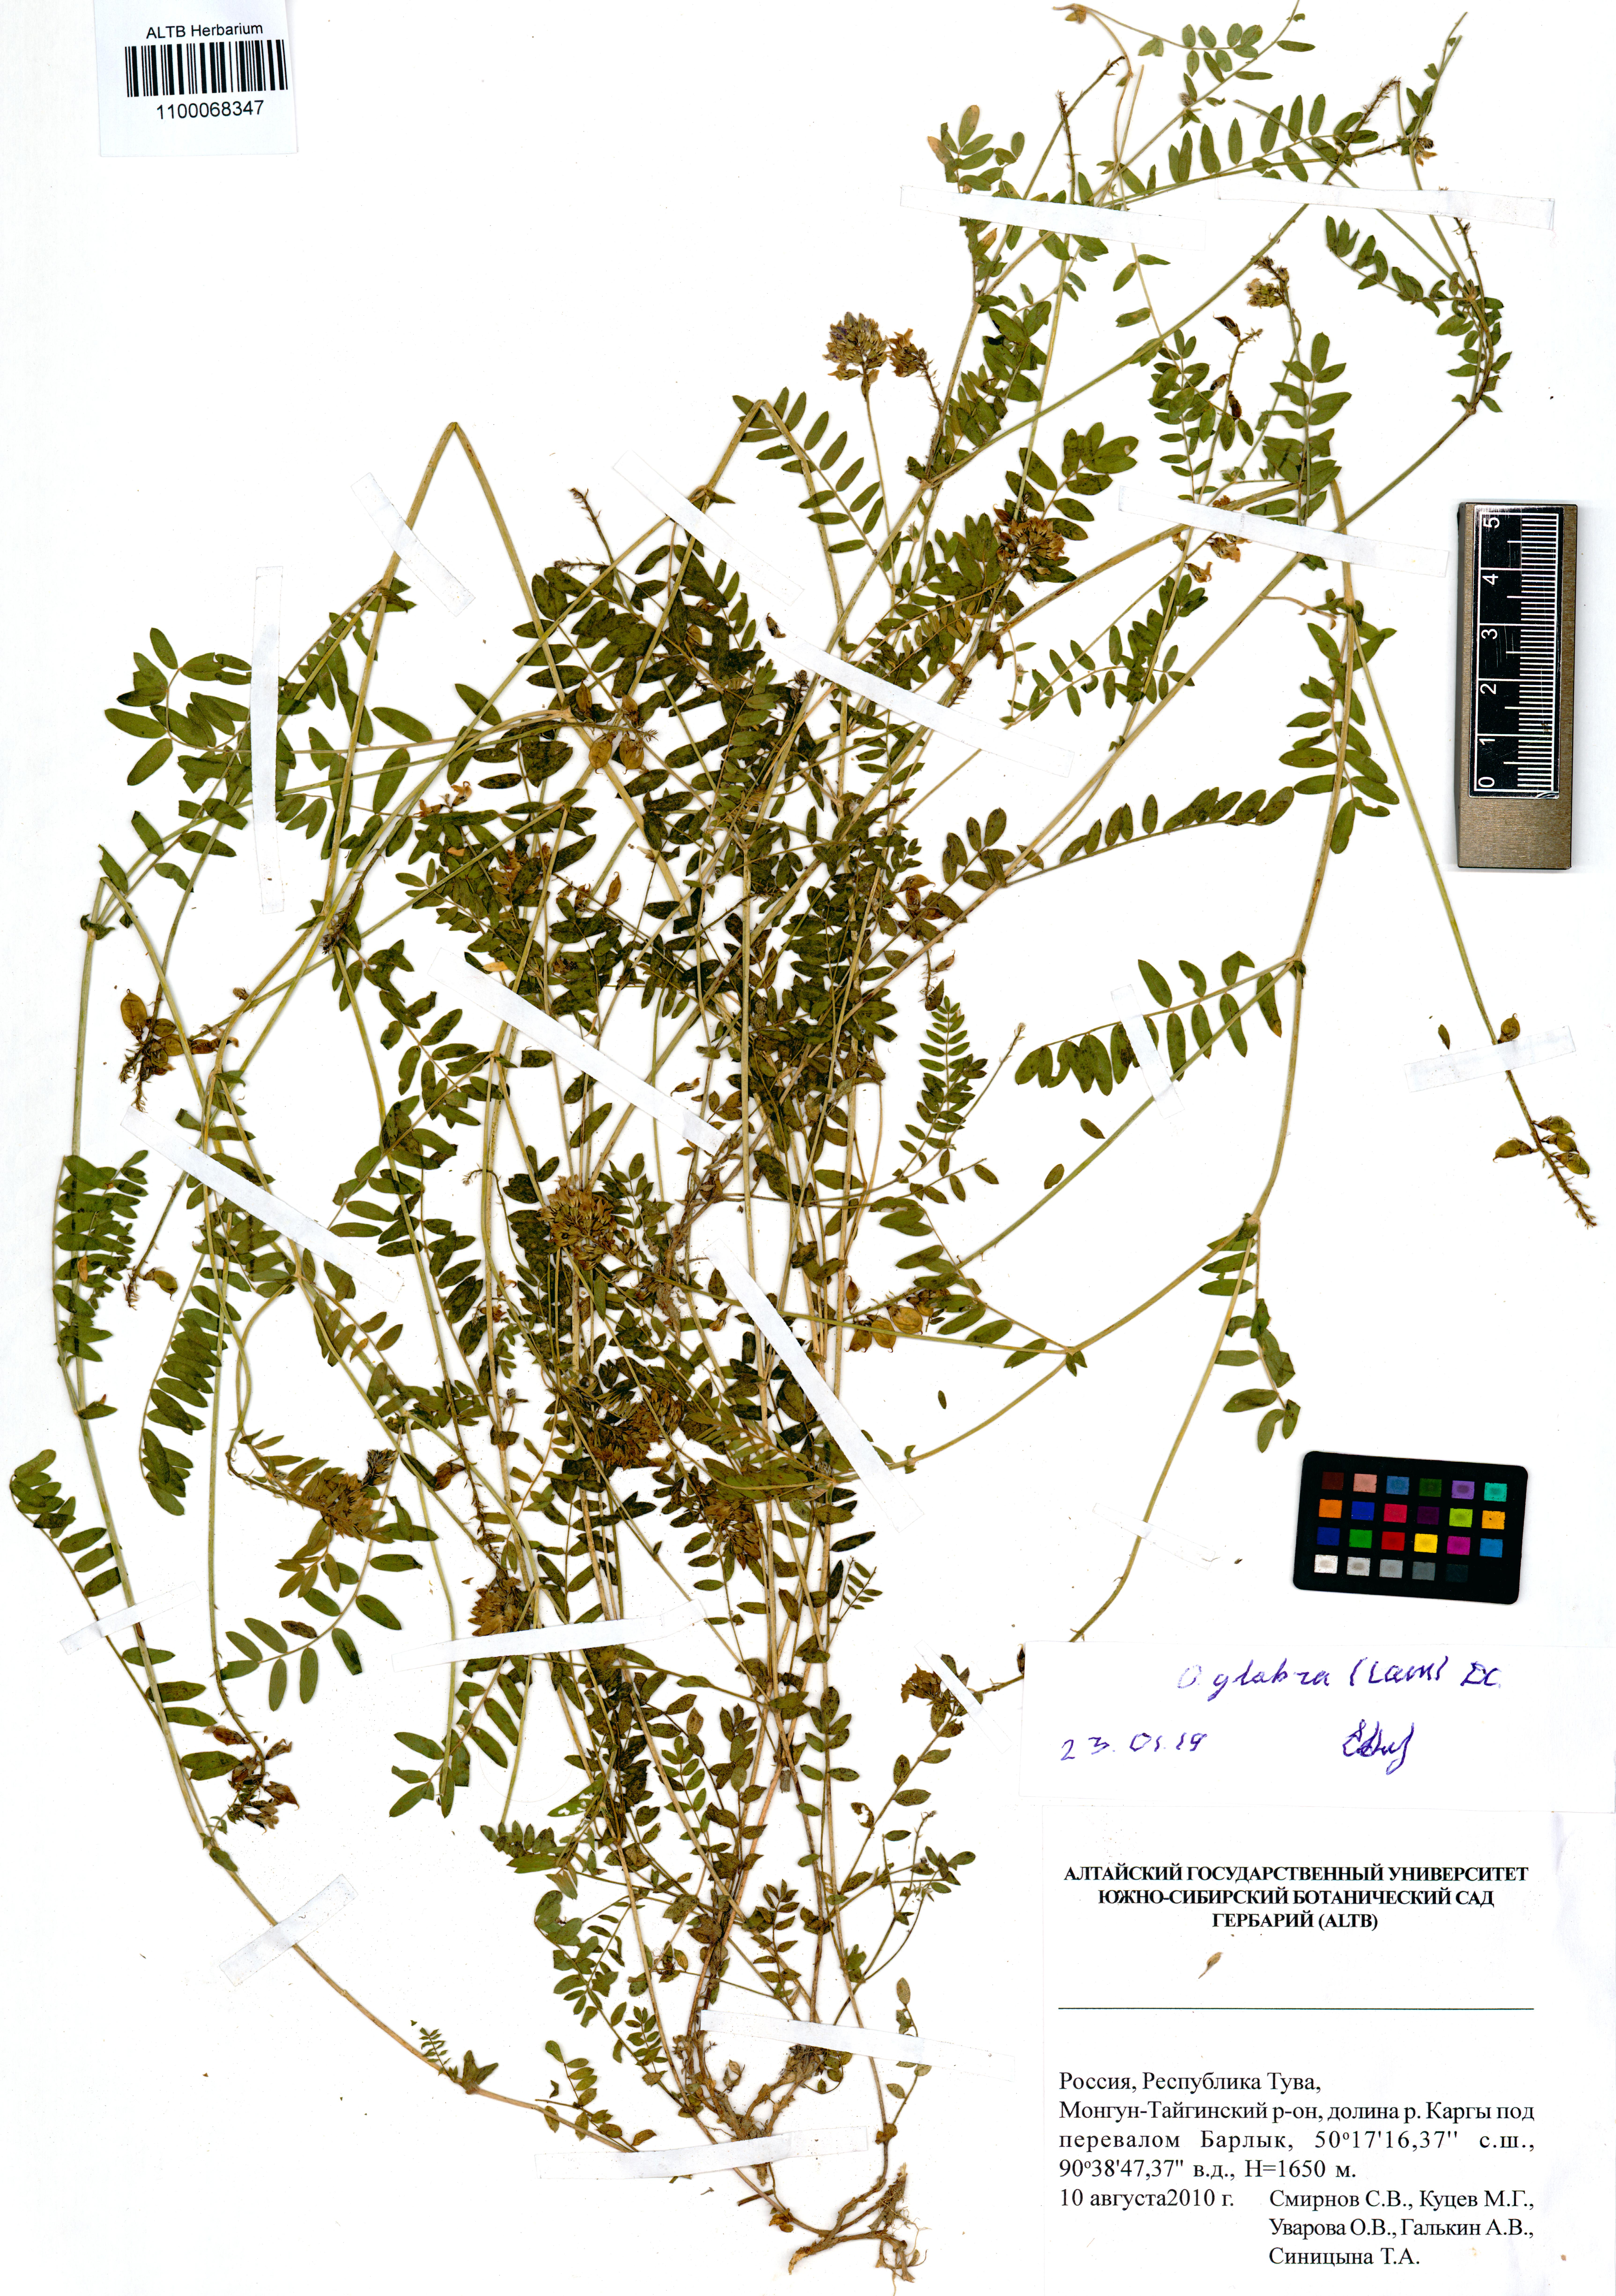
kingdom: Plantae
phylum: Tracheophyta
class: Magnoliopsida
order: Fabales
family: Fabaceae
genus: Oxytropis
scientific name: Oxytropis glabra
